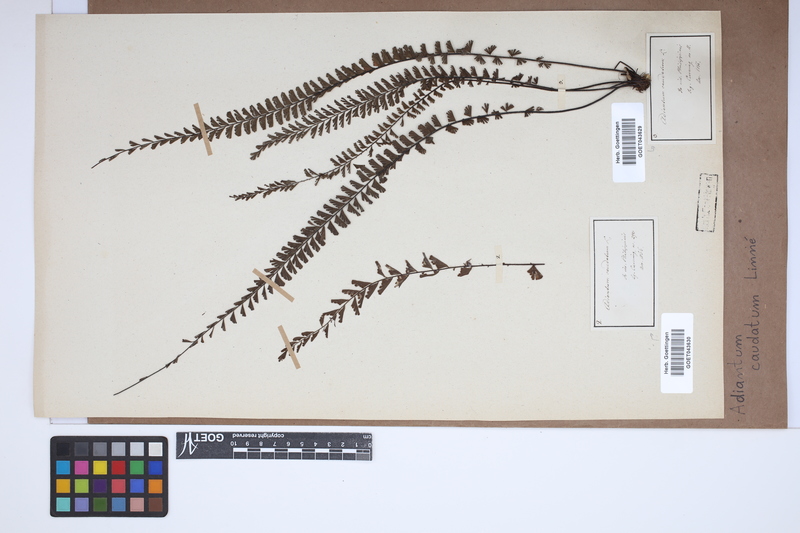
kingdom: Plantae
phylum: Tracheophyta
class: Polypodiopsida
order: Polypodiales
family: Pteridaceae
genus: Adiantum
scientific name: Adiantum caudatum
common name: Tailed maidenhair
